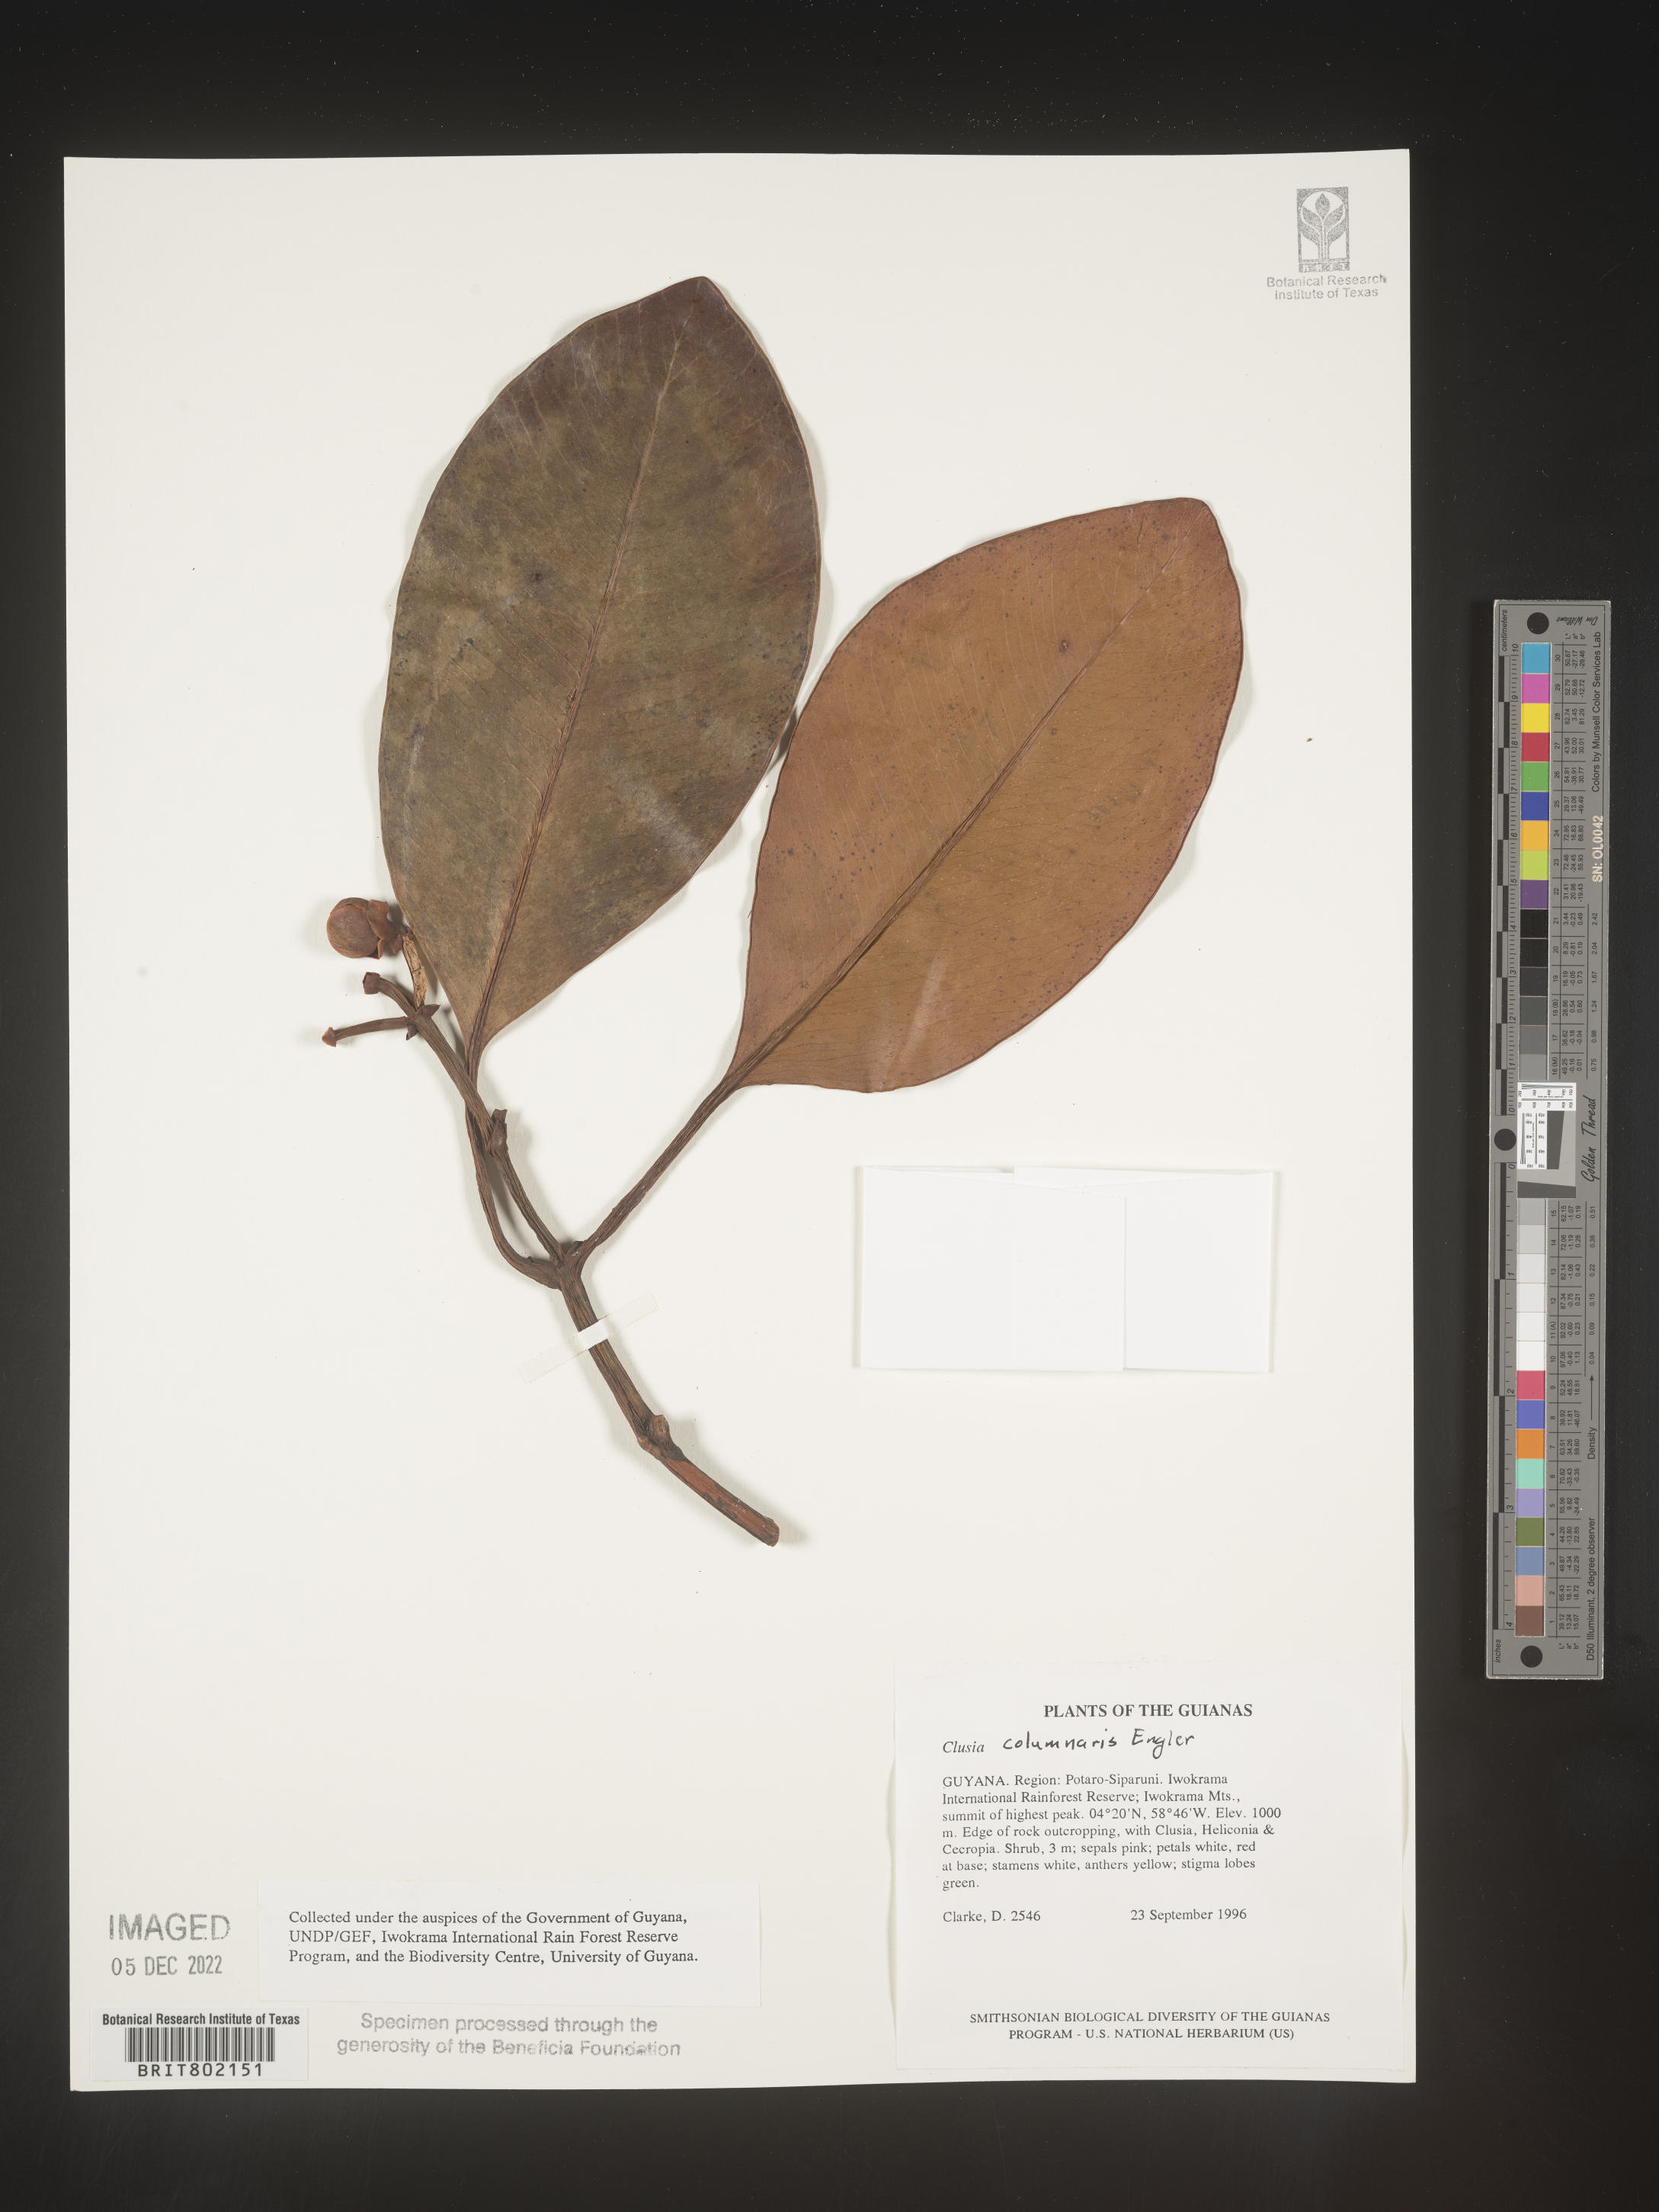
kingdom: Plantae
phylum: Tracheophyta
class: Magnoliopsida
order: Malpighiales
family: Clusiaceae
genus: Clusia
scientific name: Clusia columnaris
